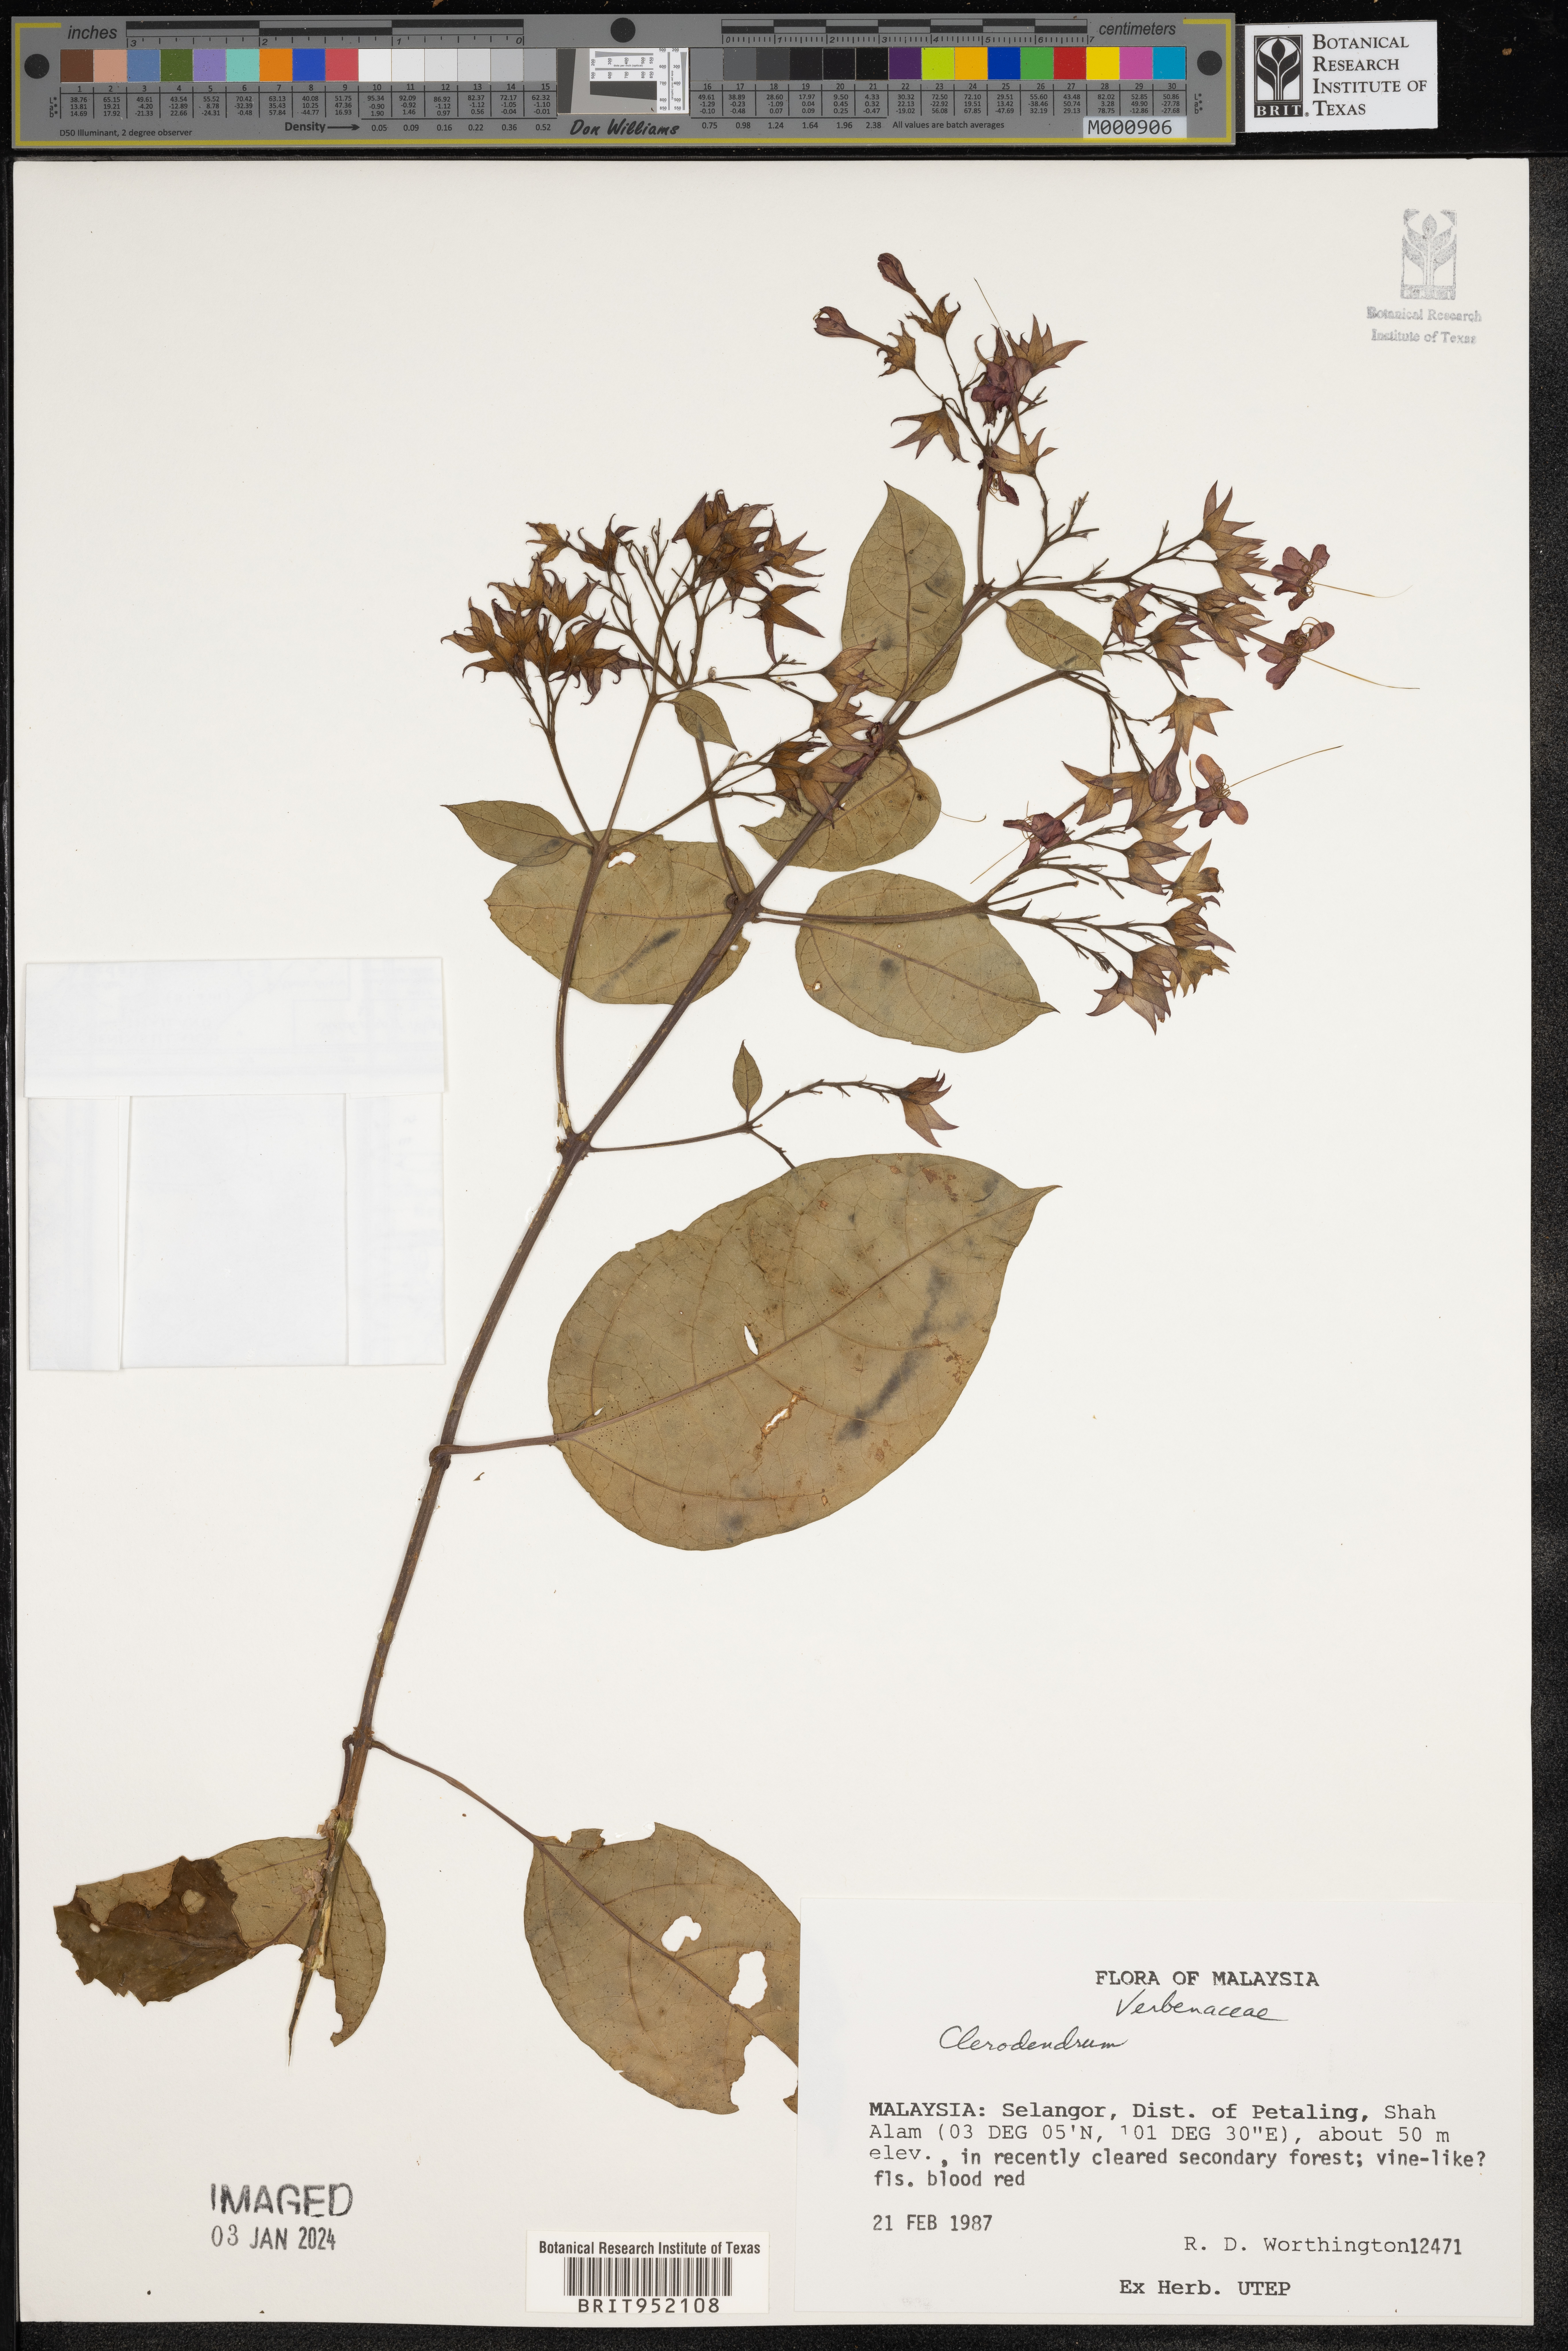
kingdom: Plantae
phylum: Tracheophyta
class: Magnoliopsida
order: Lamiales
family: Lamiaceae
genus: Clerodendrum
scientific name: Clerodendrum
